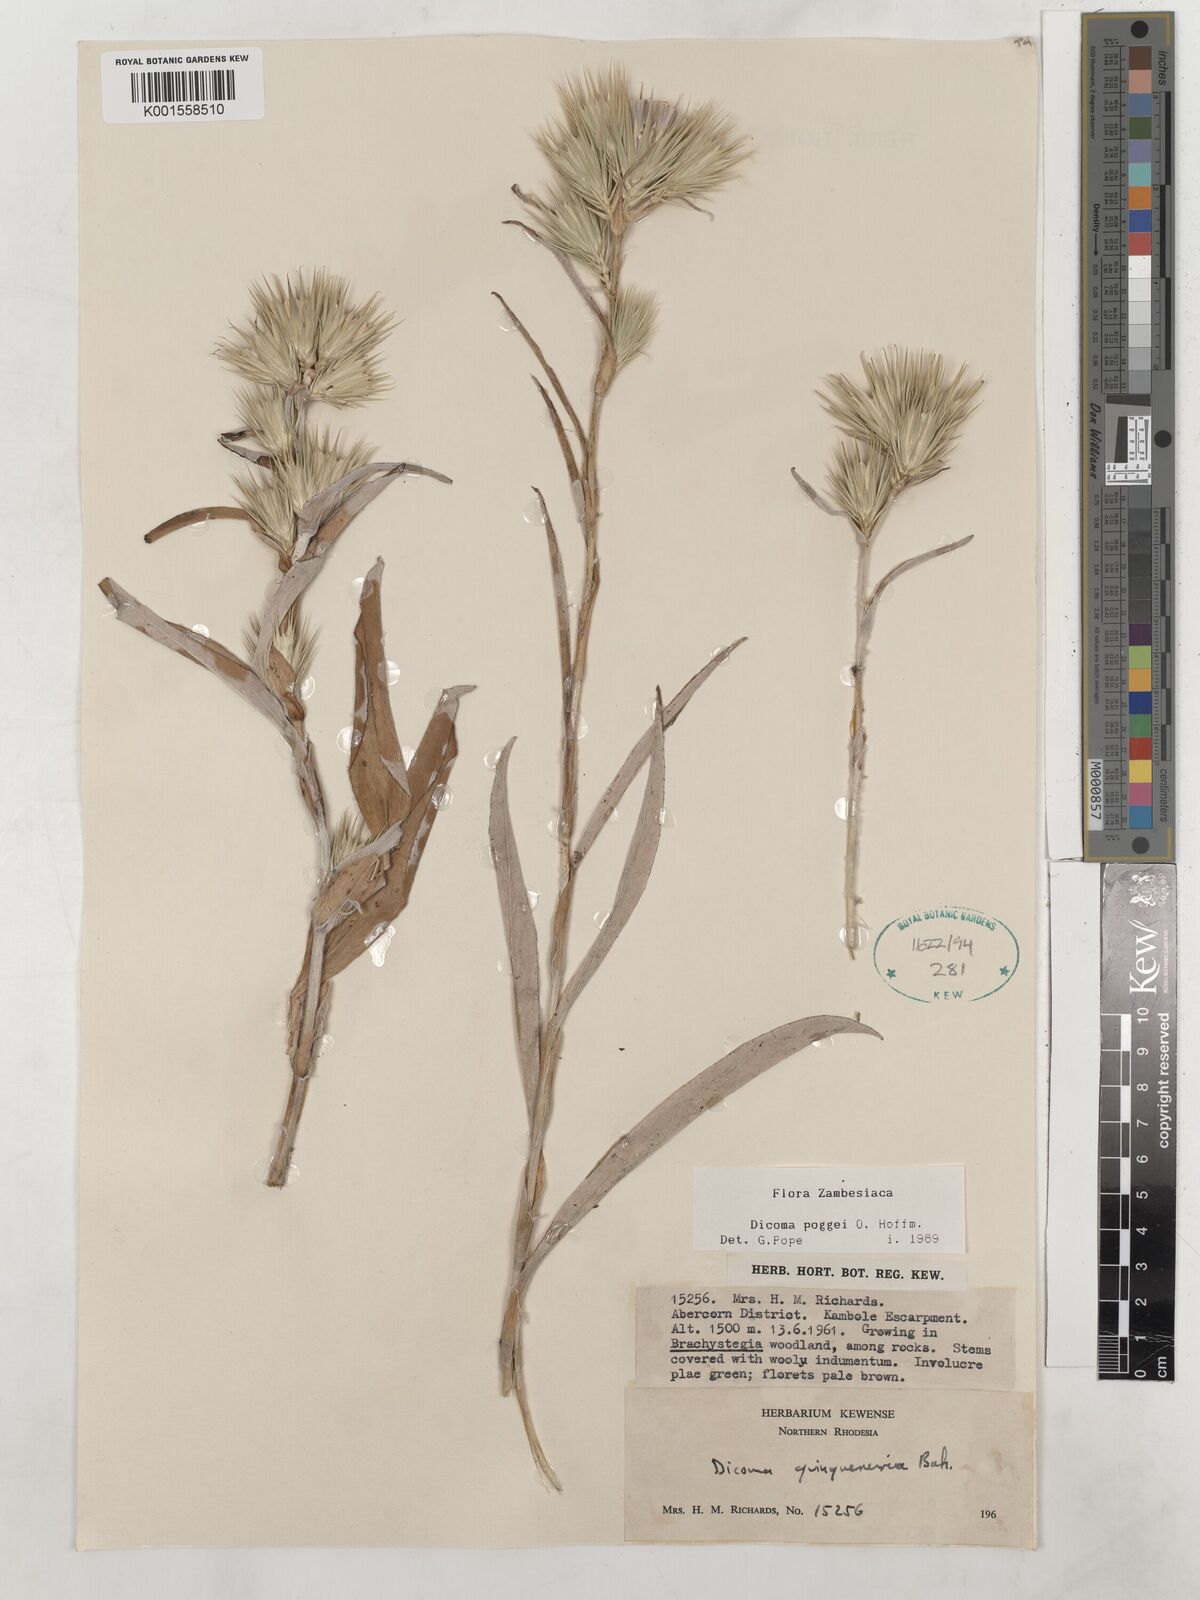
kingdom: Plantae
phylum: Tracheophyta
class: Magnoliopsida
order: Asterales
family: Asteraceae
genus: Macledium
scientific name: Macledium poggei
